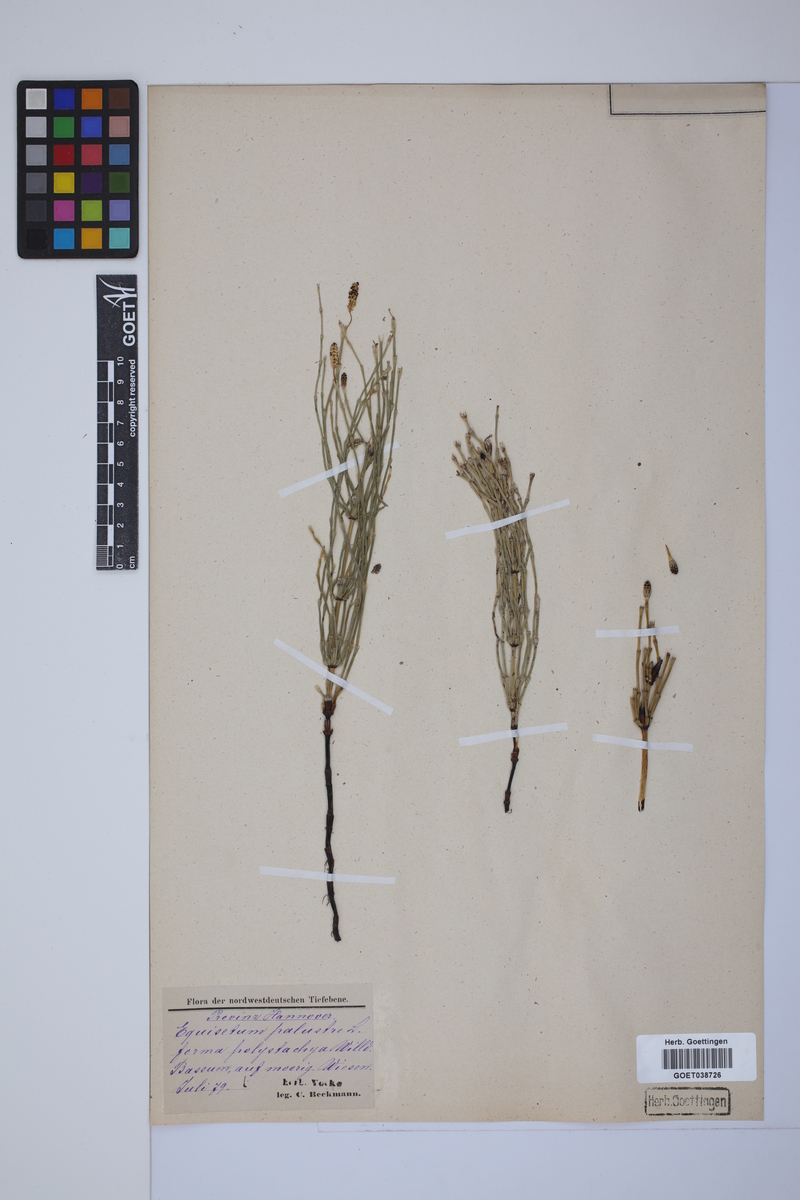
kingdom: Plantae
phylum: Tracheophyta
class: Polypodiopsida
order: Equisetales
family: Equisetaceae
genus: Equisetum
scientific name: Equisetum palustre
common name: Marsh horsetail
